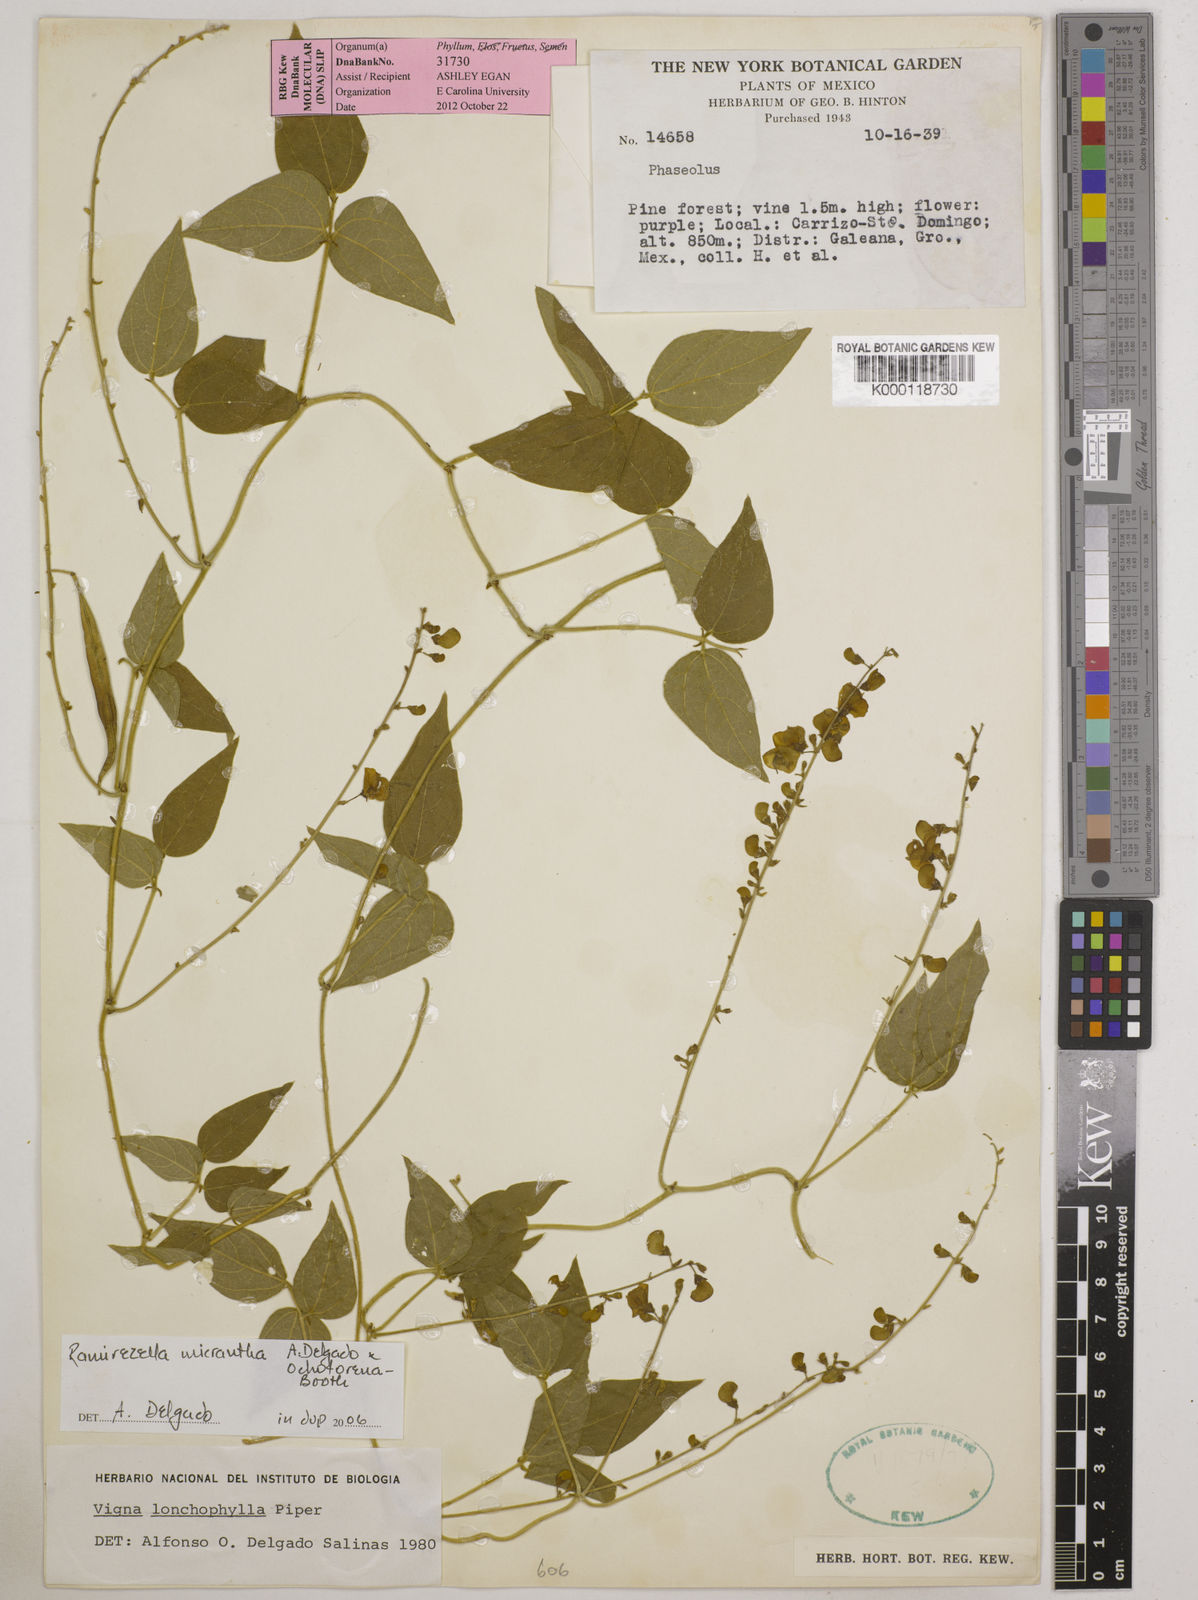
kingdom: Plantae
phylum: Tracheophyta
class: Magnoliopsida
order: Fabales
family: Fabaceae
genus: Ramirezella
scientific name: Ramirezella micrantha
